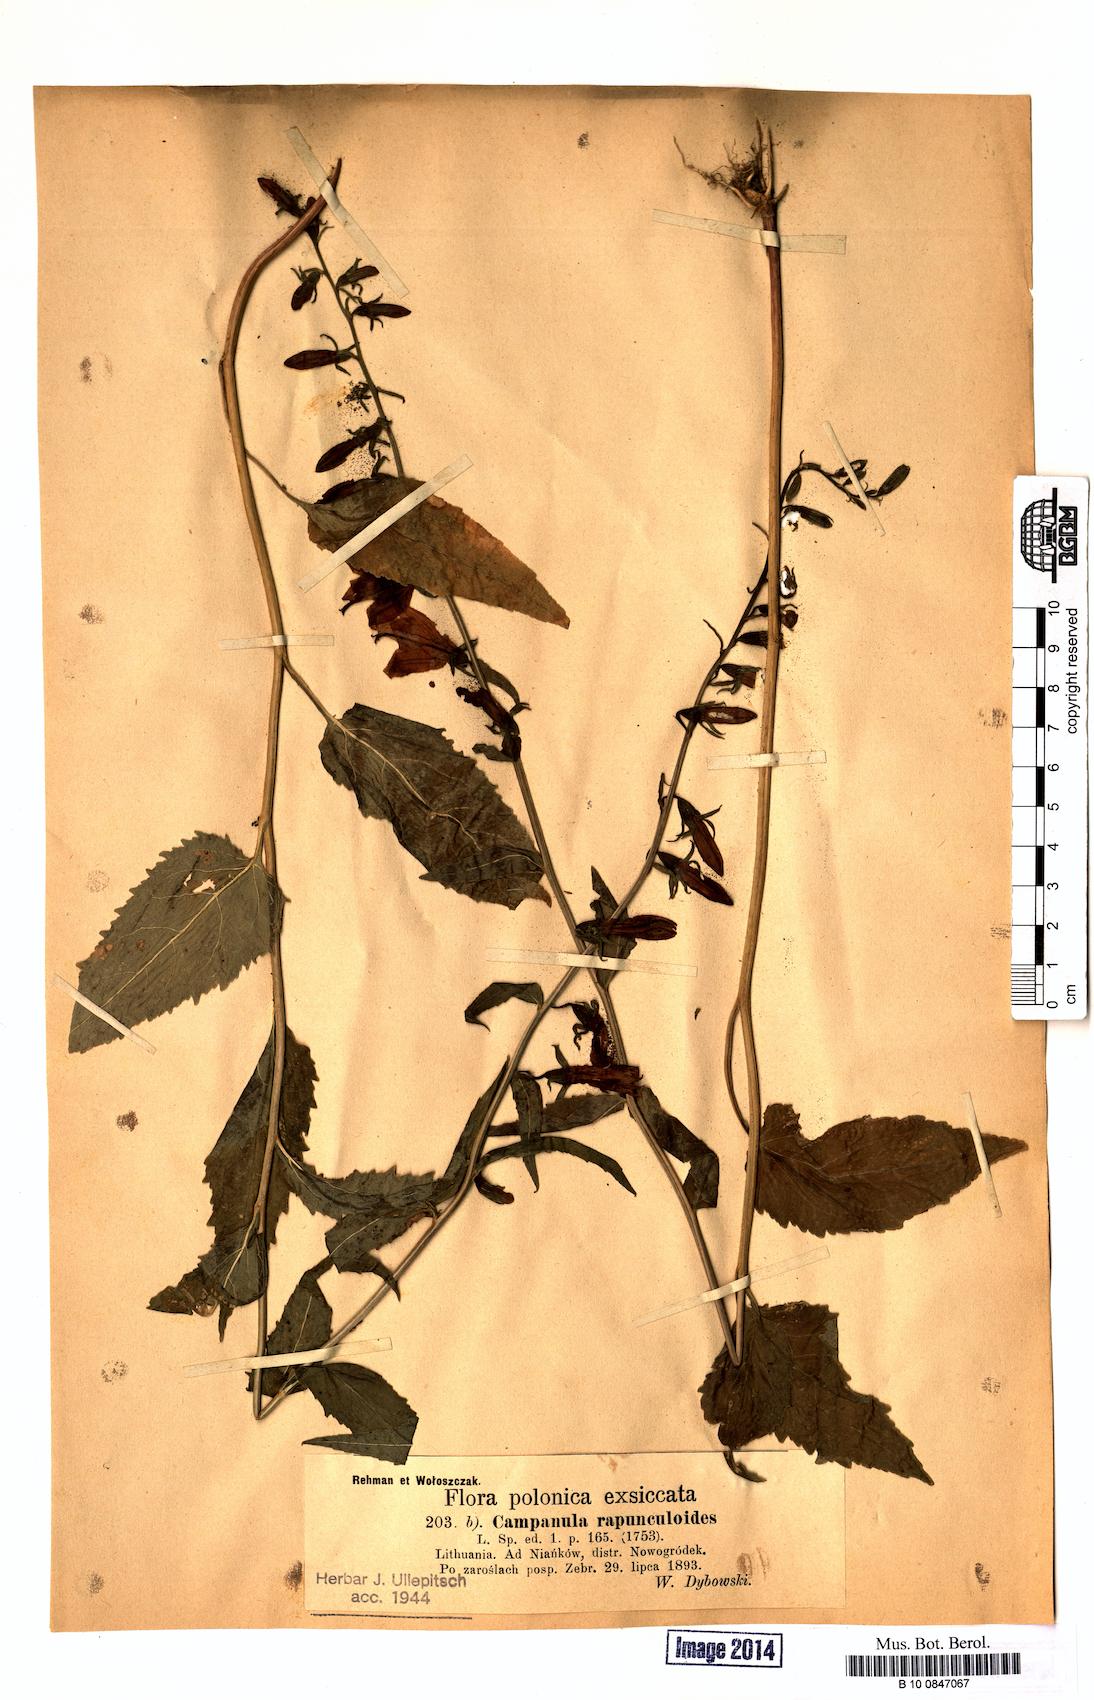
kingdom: Plantae
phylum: Tracheophyta
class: Magnoliopsida
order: Asterales
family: Campanulaceae
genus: Campanula
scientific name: Campanula rapunculoides
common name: Creeping bellflower
